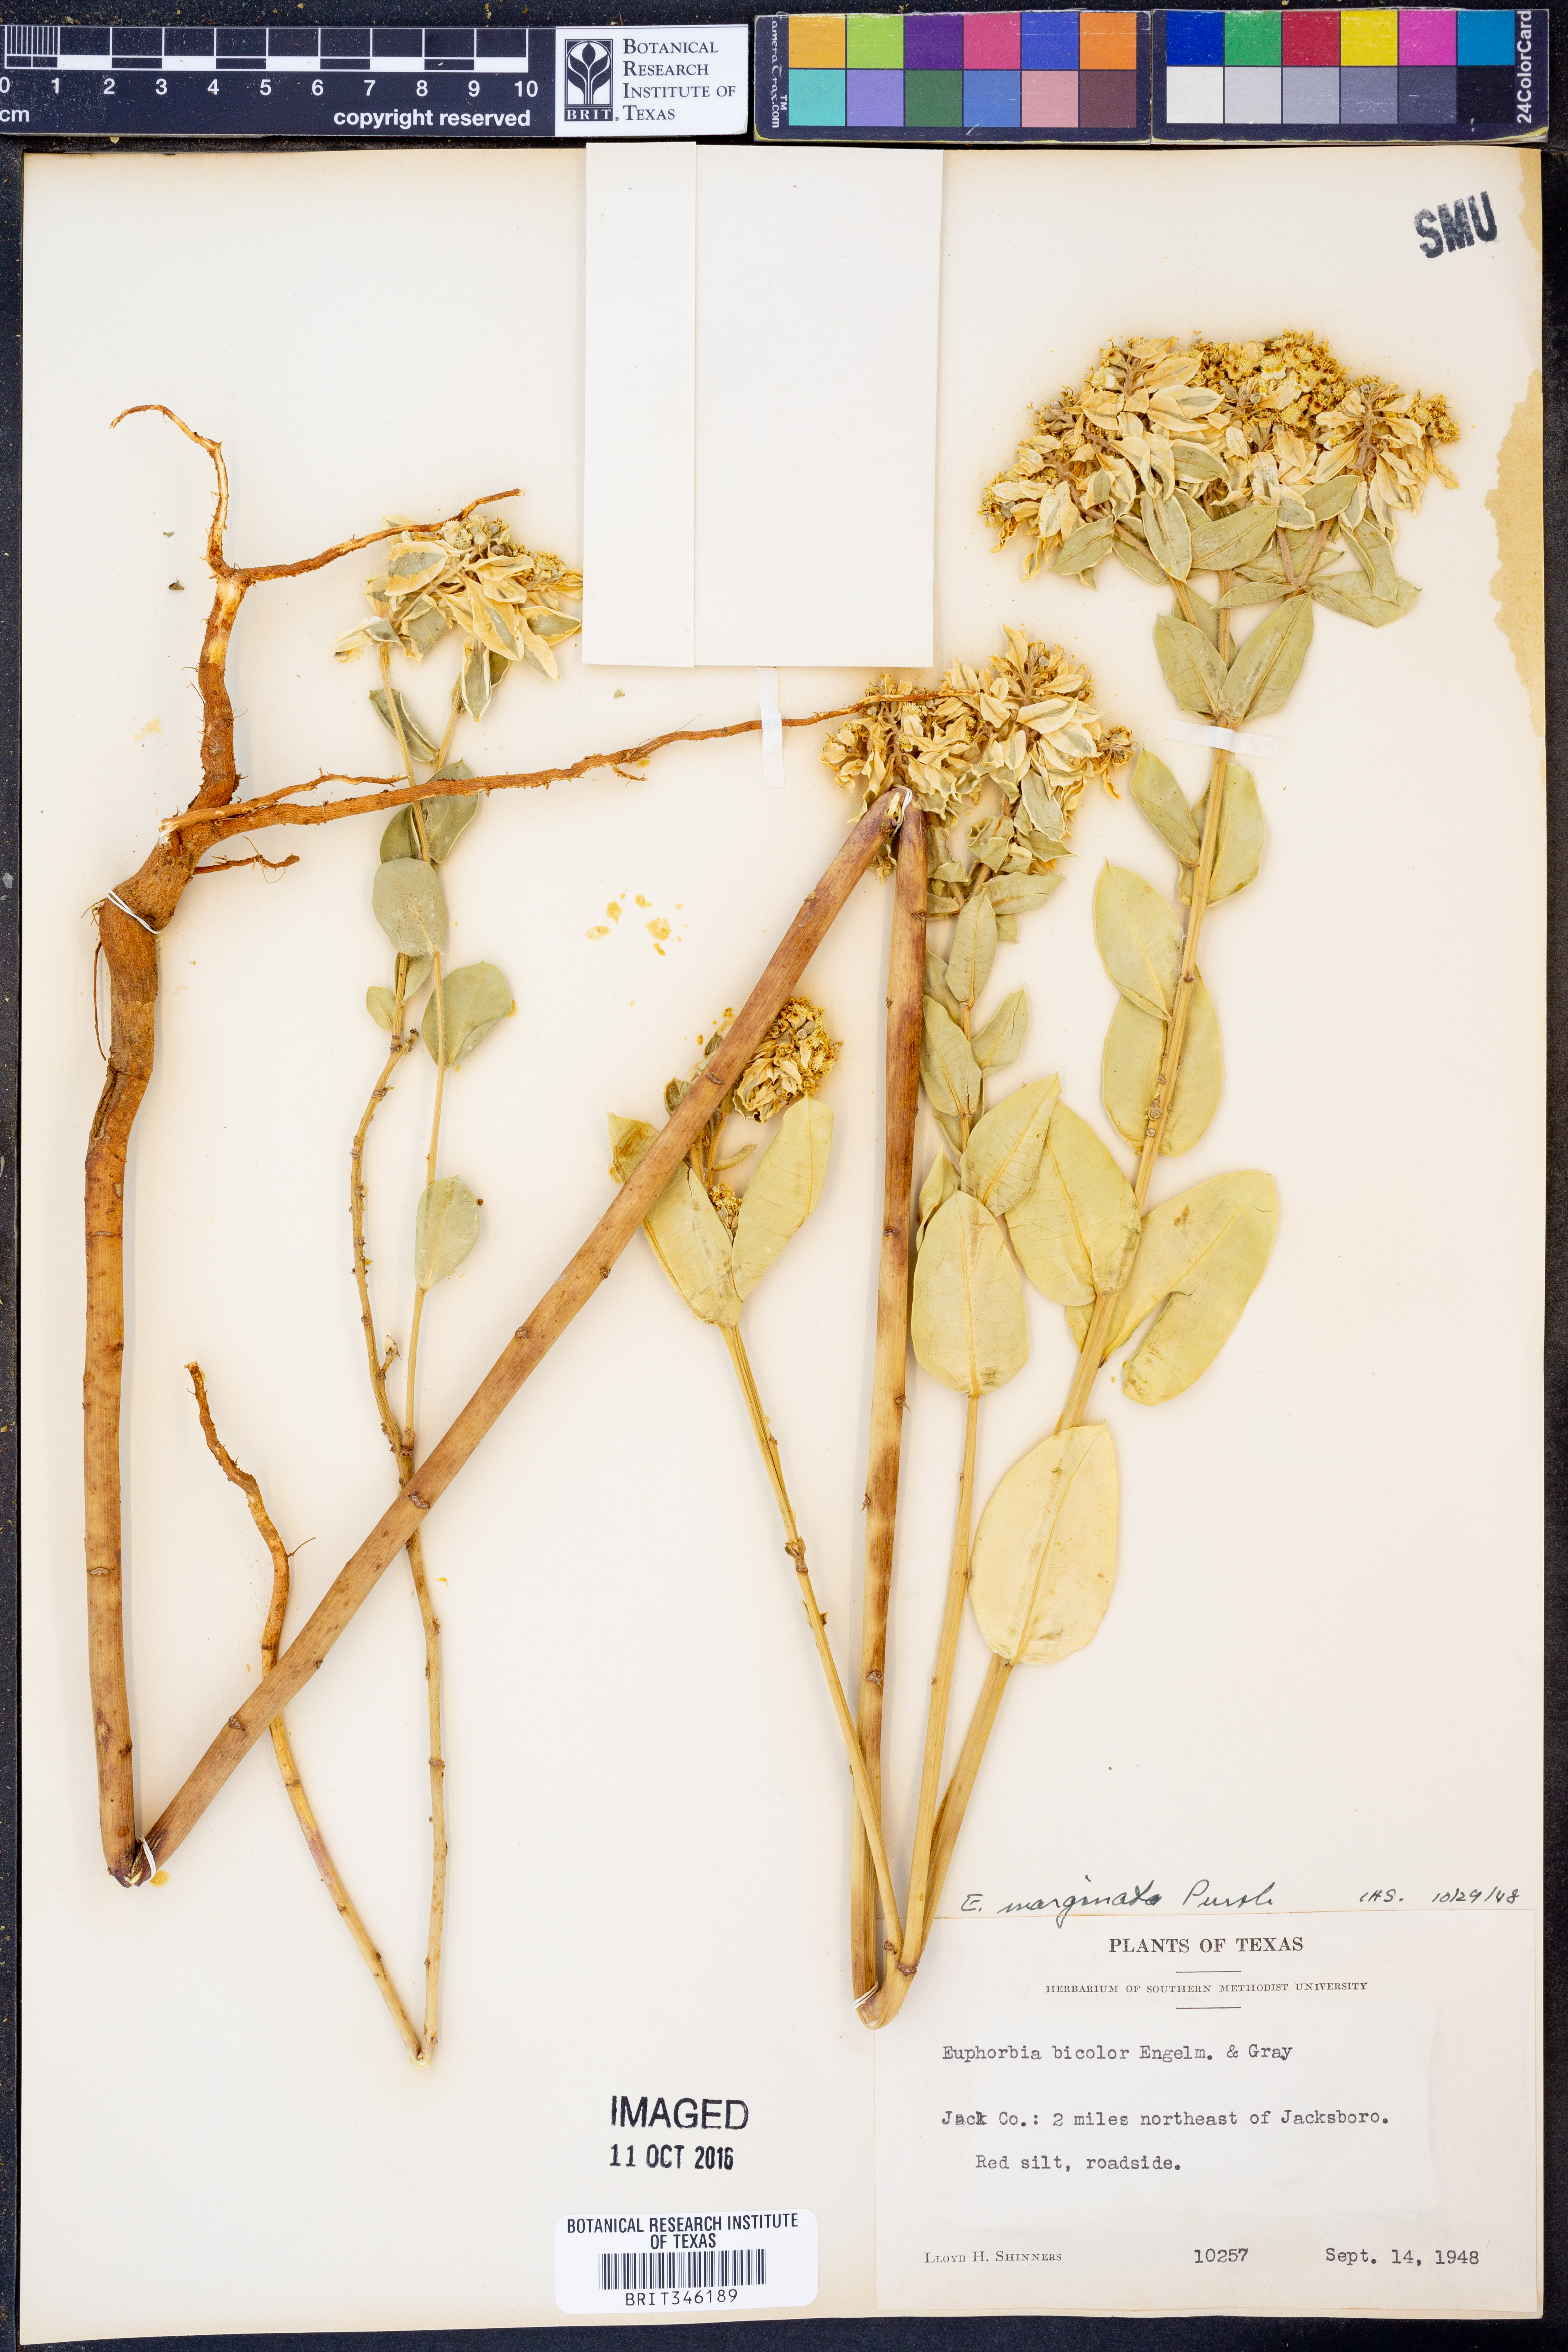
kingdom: Plantae
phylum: Tracheophyta
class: Magnoliopsida
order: Malpighiales
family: Euphorbiaceae
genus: Euphorbia
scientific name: Euphorbia marginata
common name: Ghostweed
